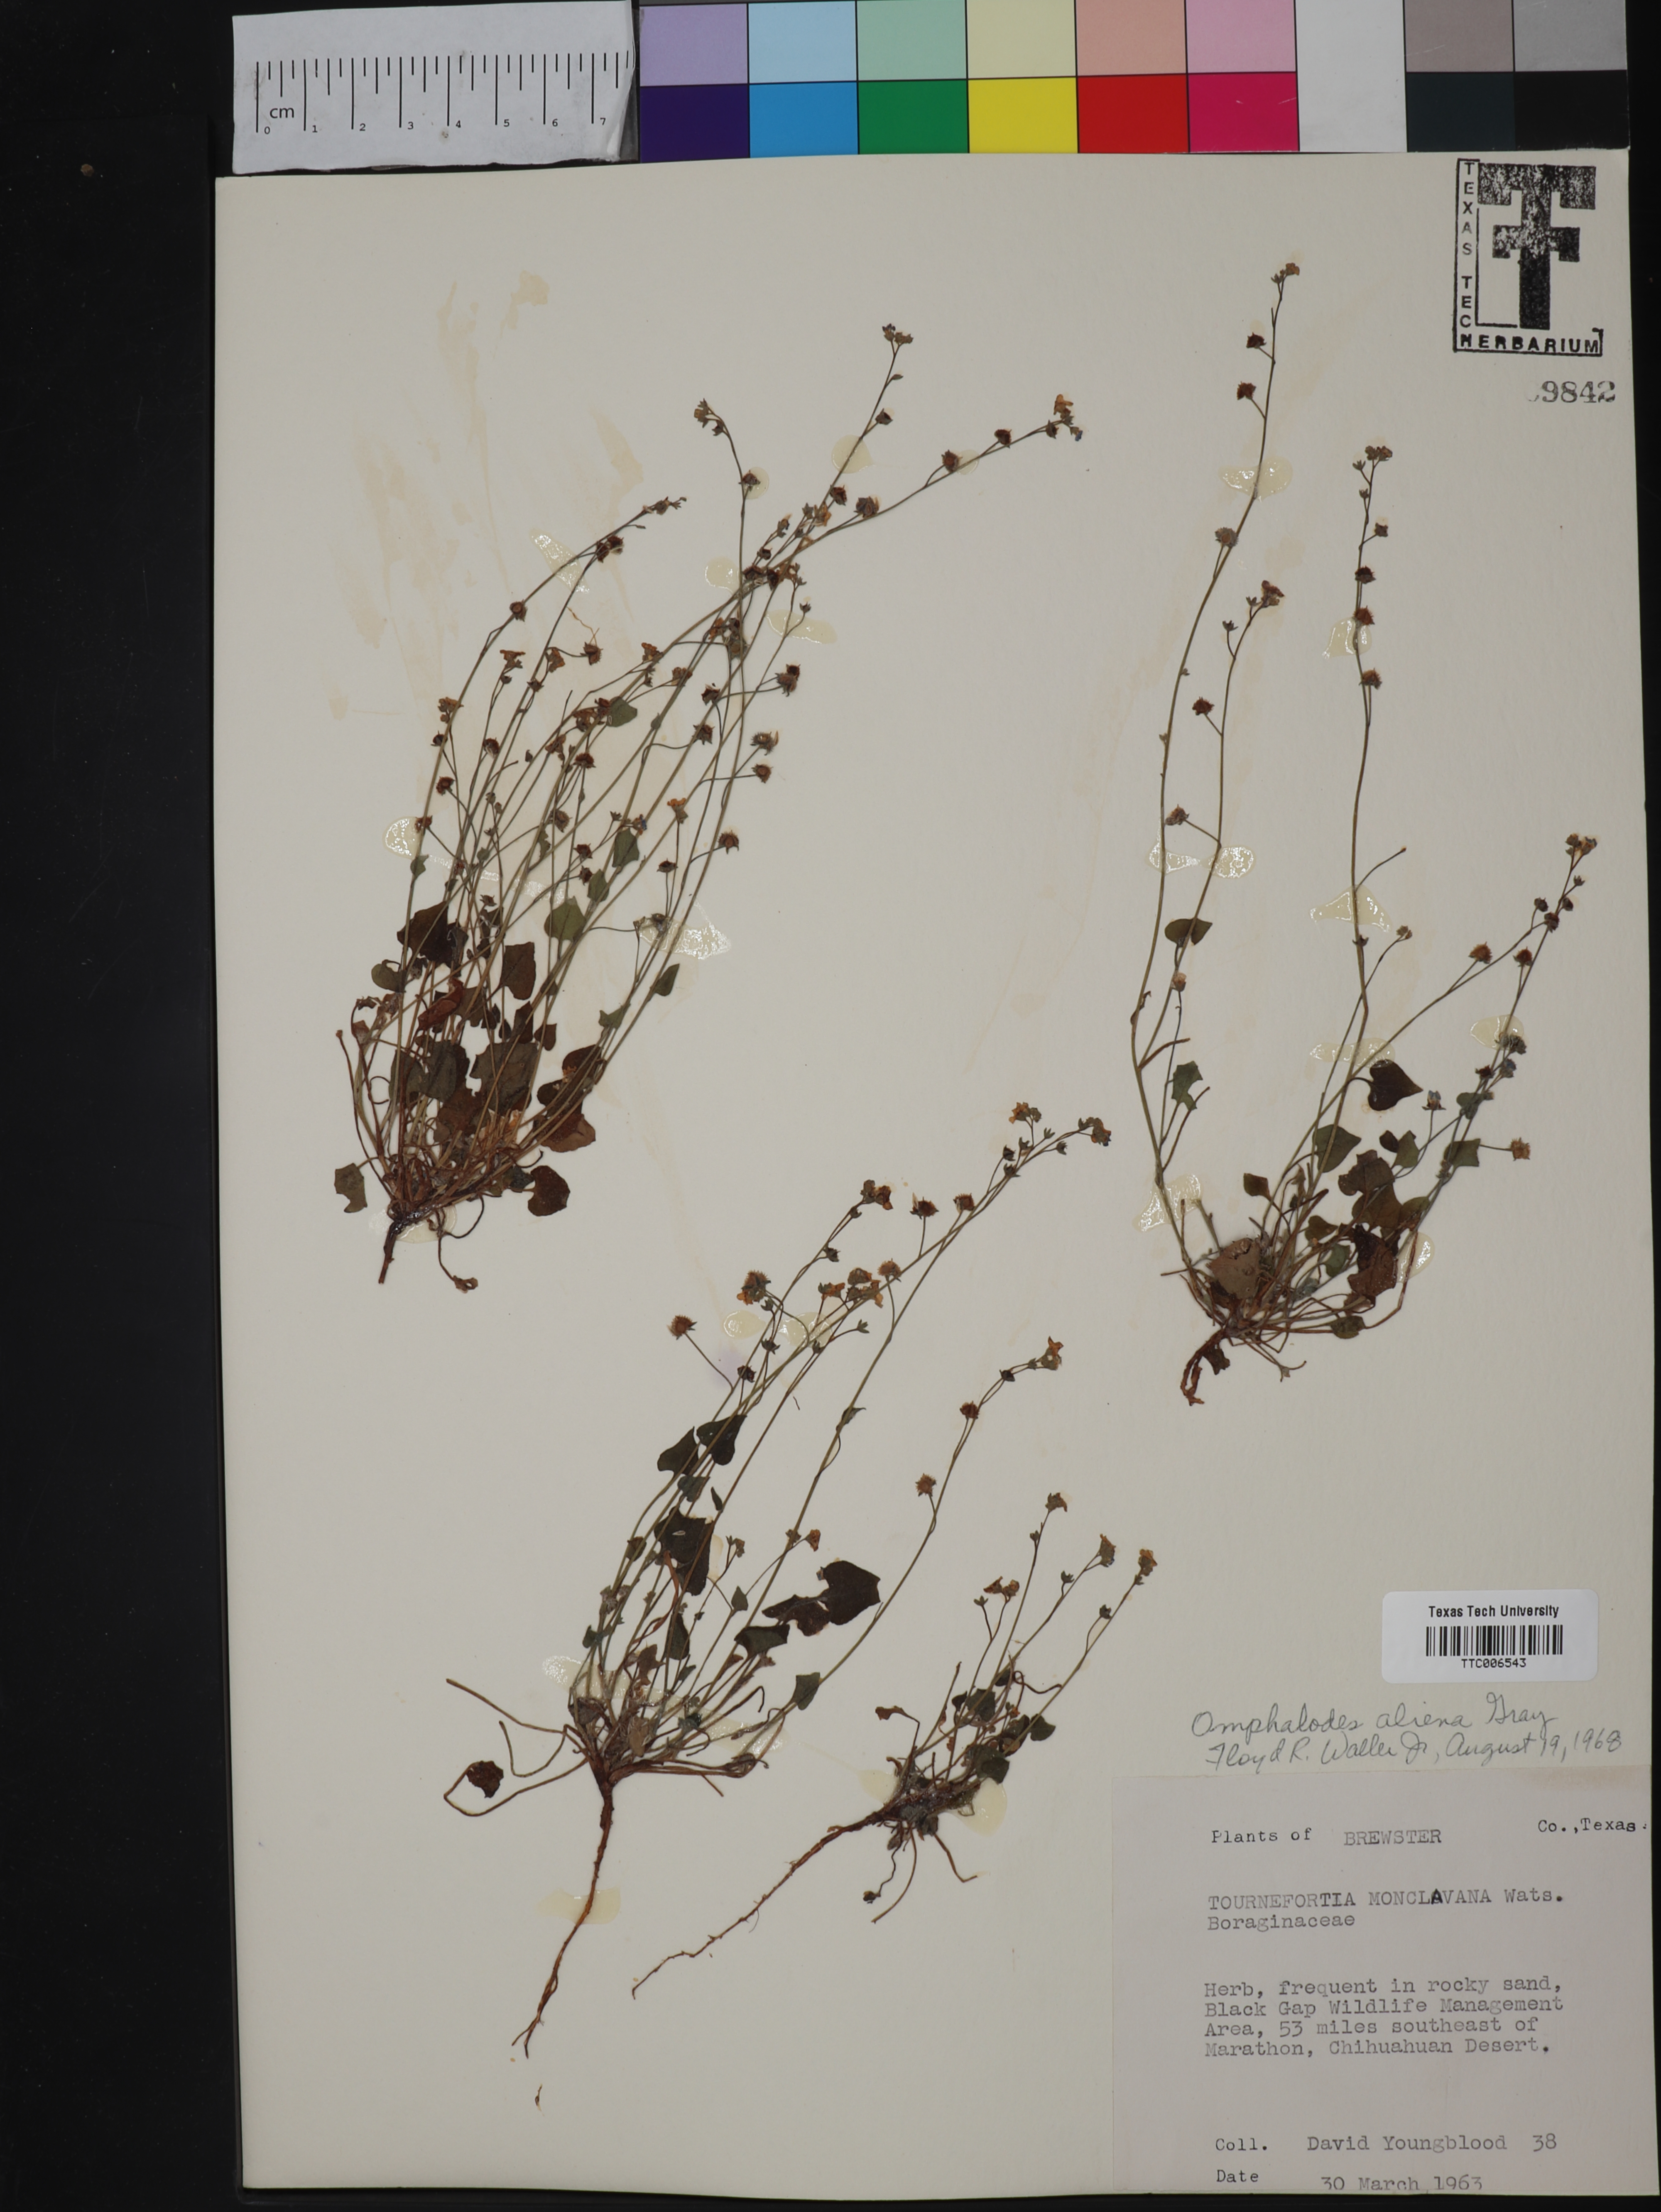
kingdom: Plantae
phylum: Tracheophyta
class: Magnoliopsida
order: Boraginales
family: Boraginaceae
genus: Omphalodes
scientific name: Omphalodes aliena
